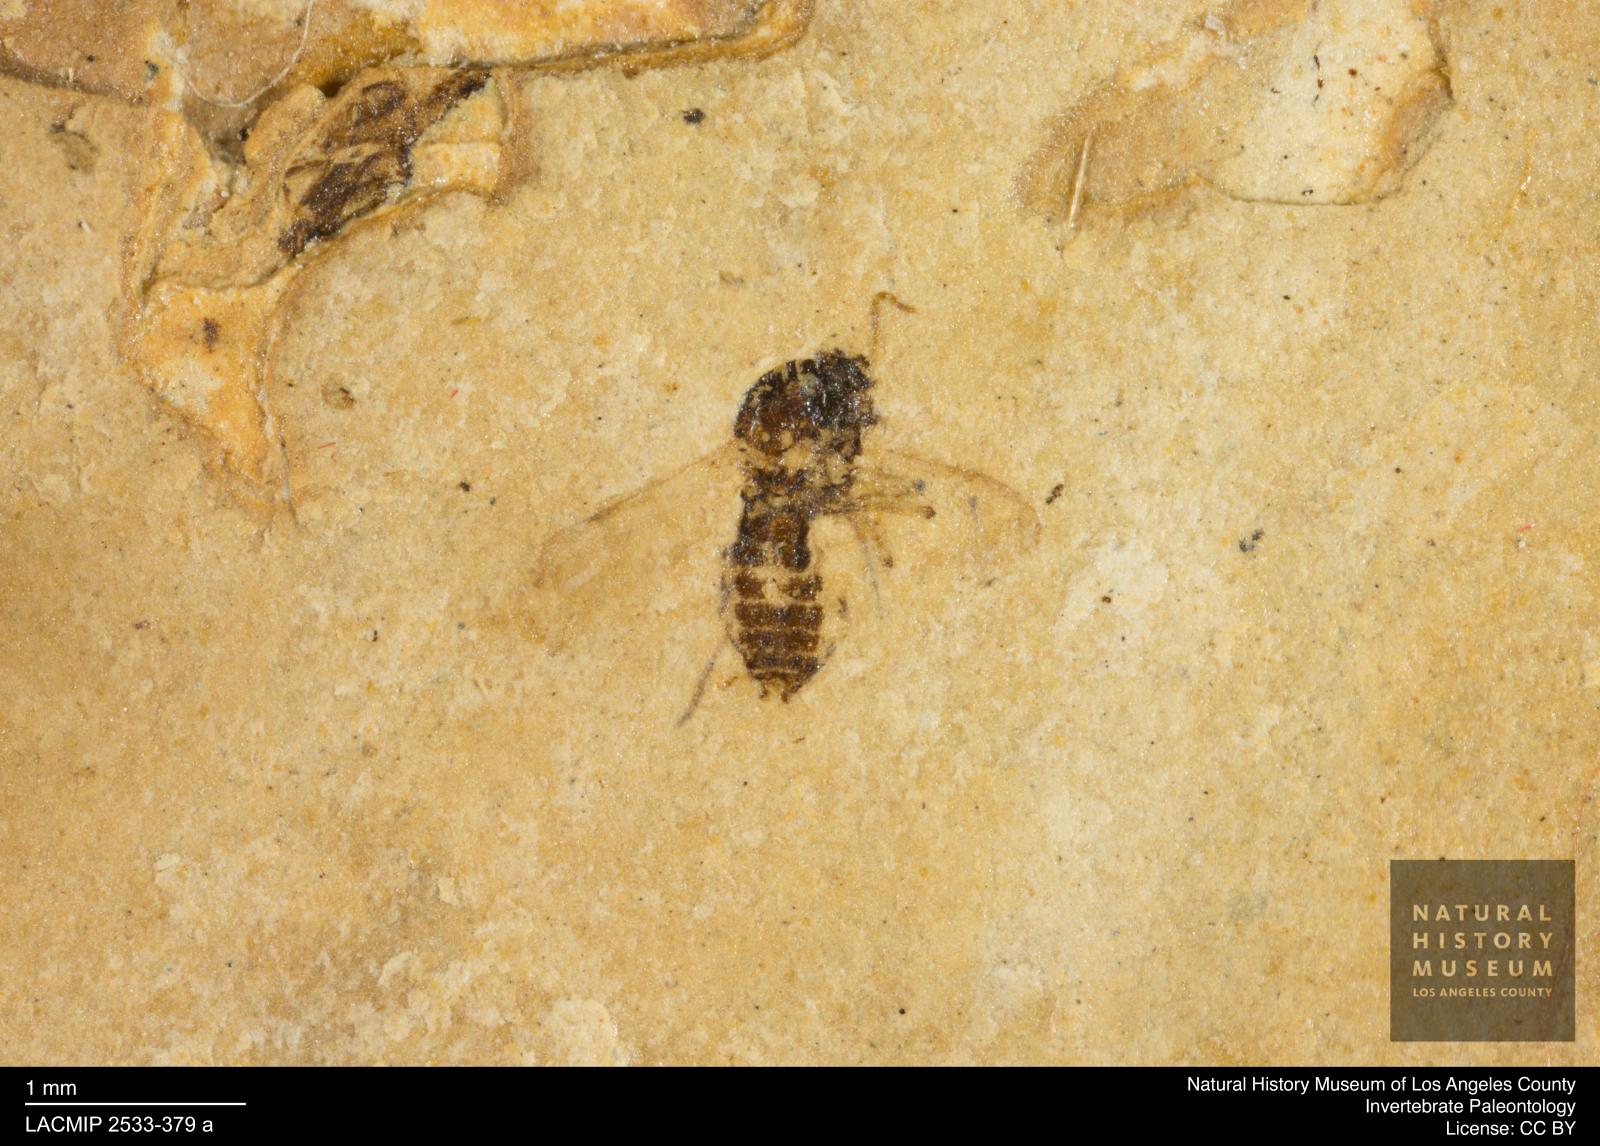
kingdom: Animalia
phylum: Arthropoda
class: Insecta
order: Diptera
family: Ceratopogonidae
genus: Culicoides
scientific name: Culicoides liliputanus
